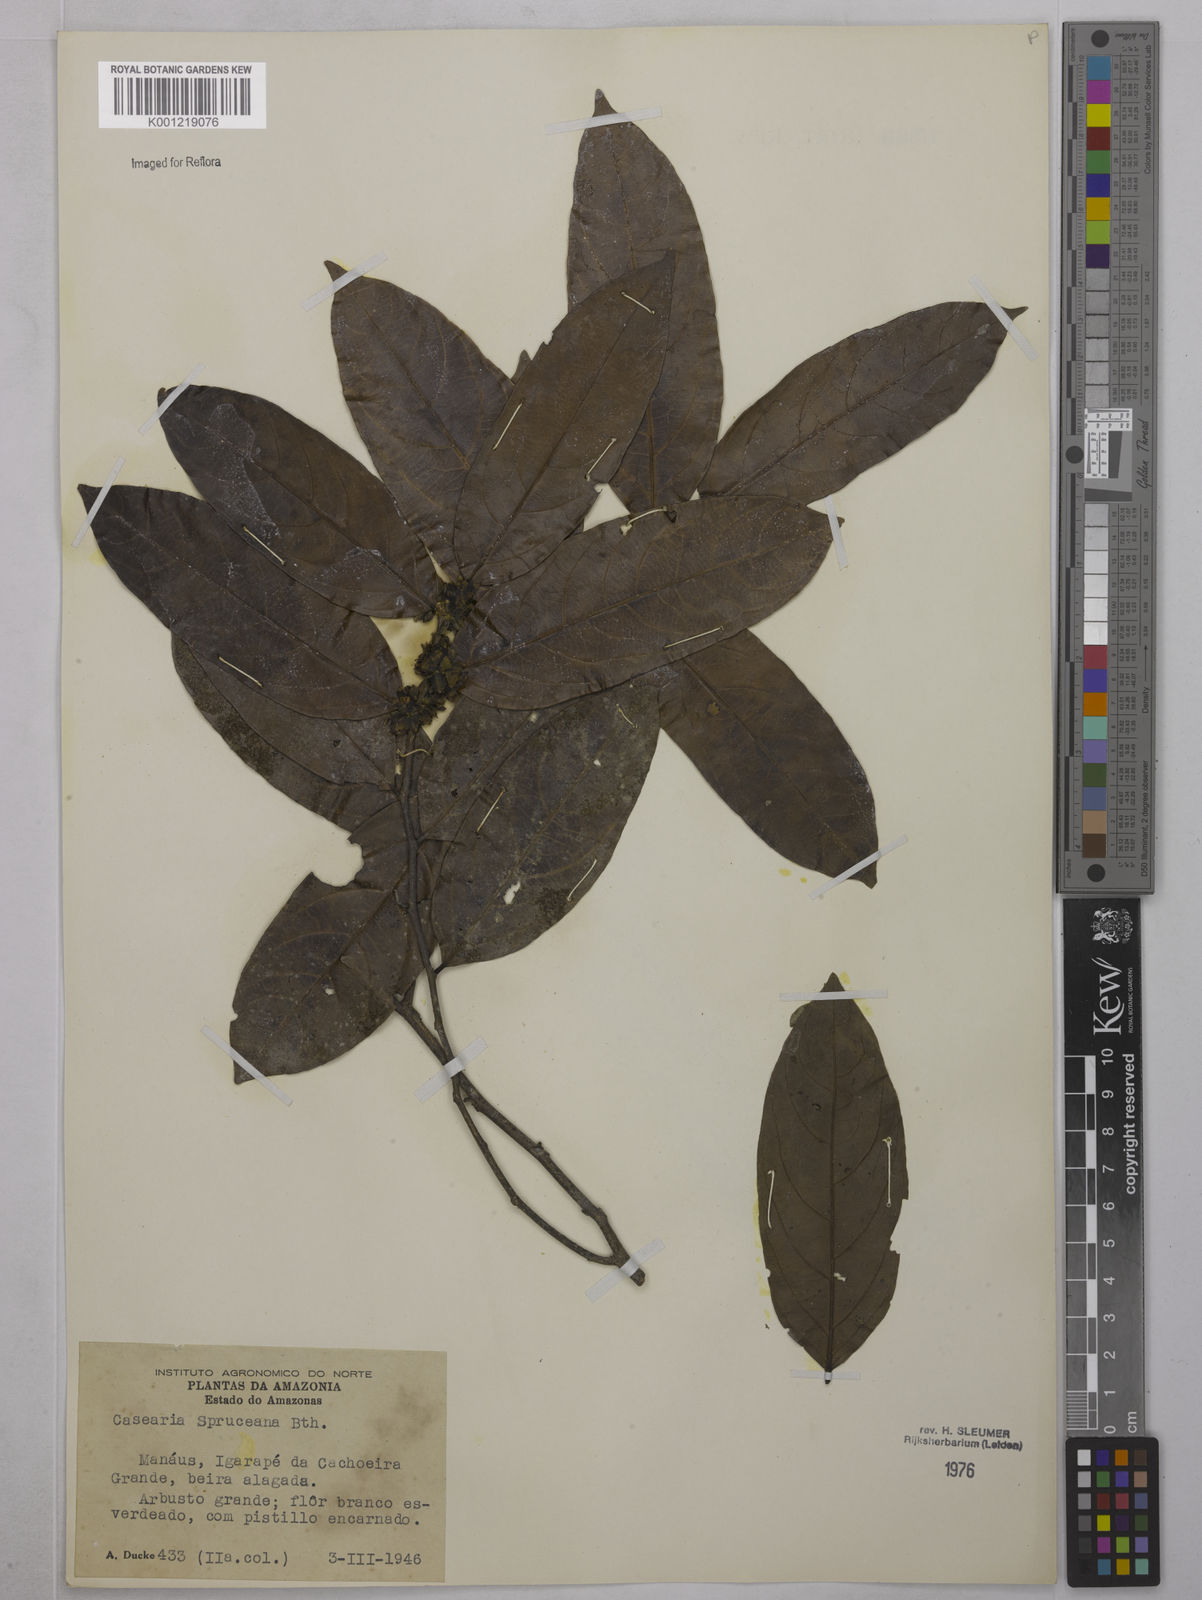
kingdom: Plantae
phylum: Tracheophyta
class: Magnoliopsida
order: Malpighiales
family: Salicaceae
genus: Piparea
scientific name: Piparea spruceana
